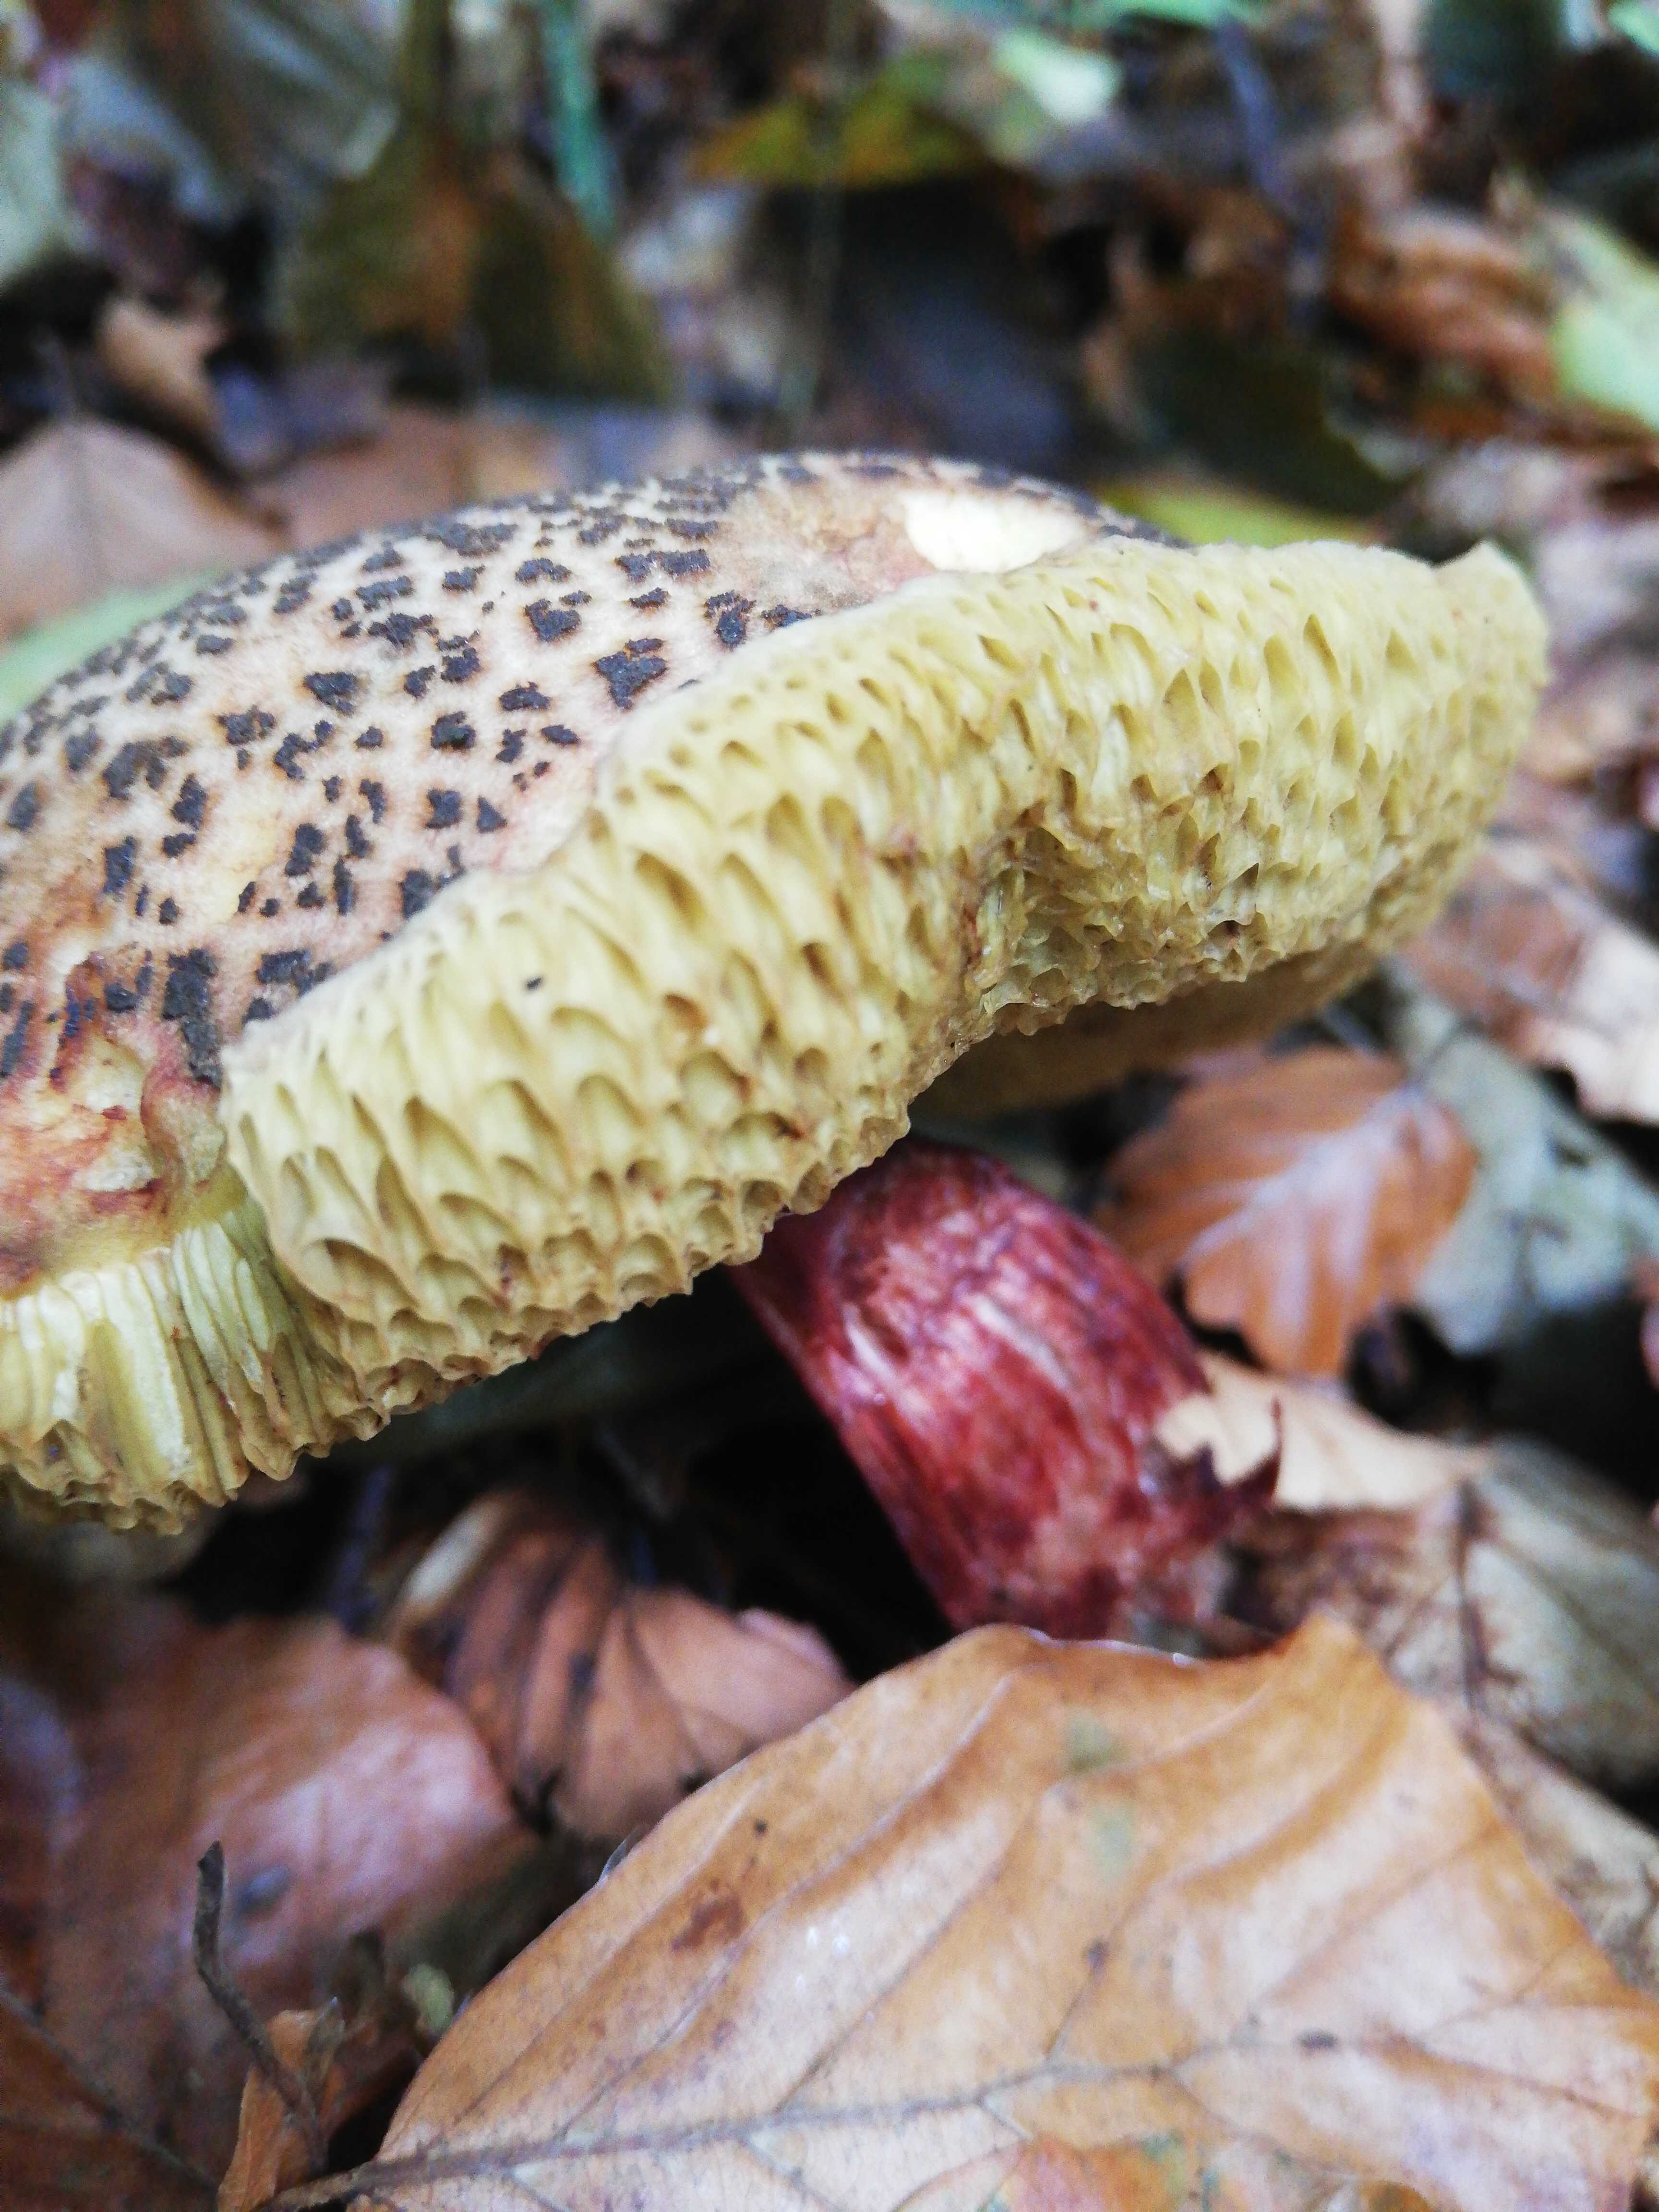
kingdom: Fungi
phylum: Basidiomycota
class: Agaricomycetes
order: Boletales
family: Boletaceae
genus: Xerocomellus
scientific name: Xerocomellus
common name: dværgrørhat
